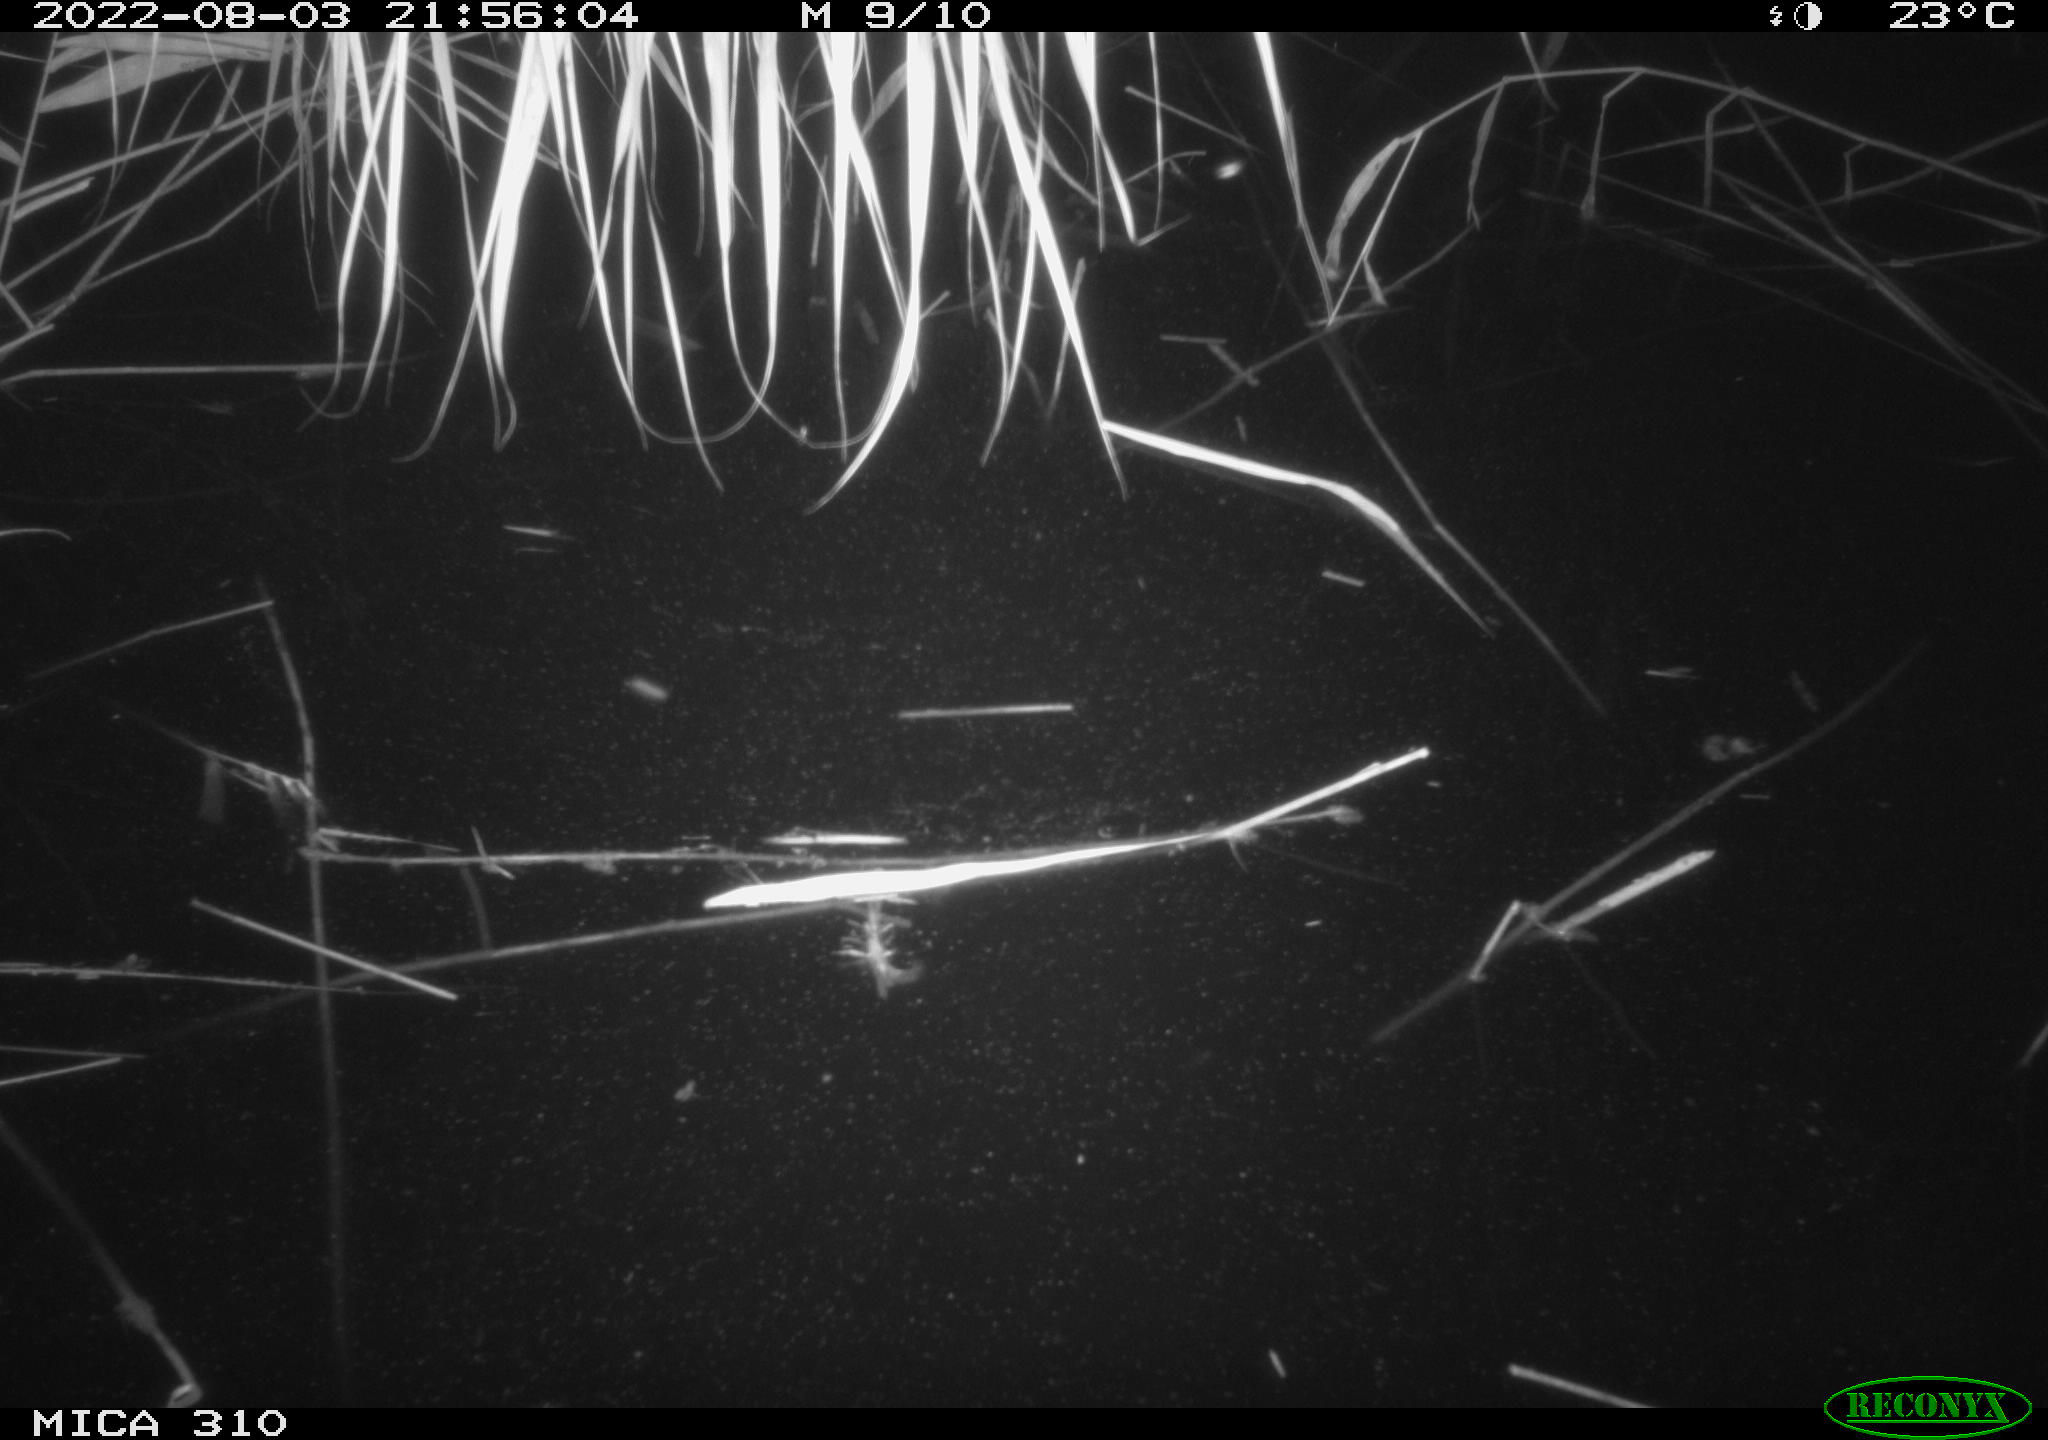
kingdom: Animalia
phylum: Chordata
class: Aves
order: Anseriformes
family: Anatidae
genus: Anas
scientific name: Anas platyrhynchos
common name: Mallard
